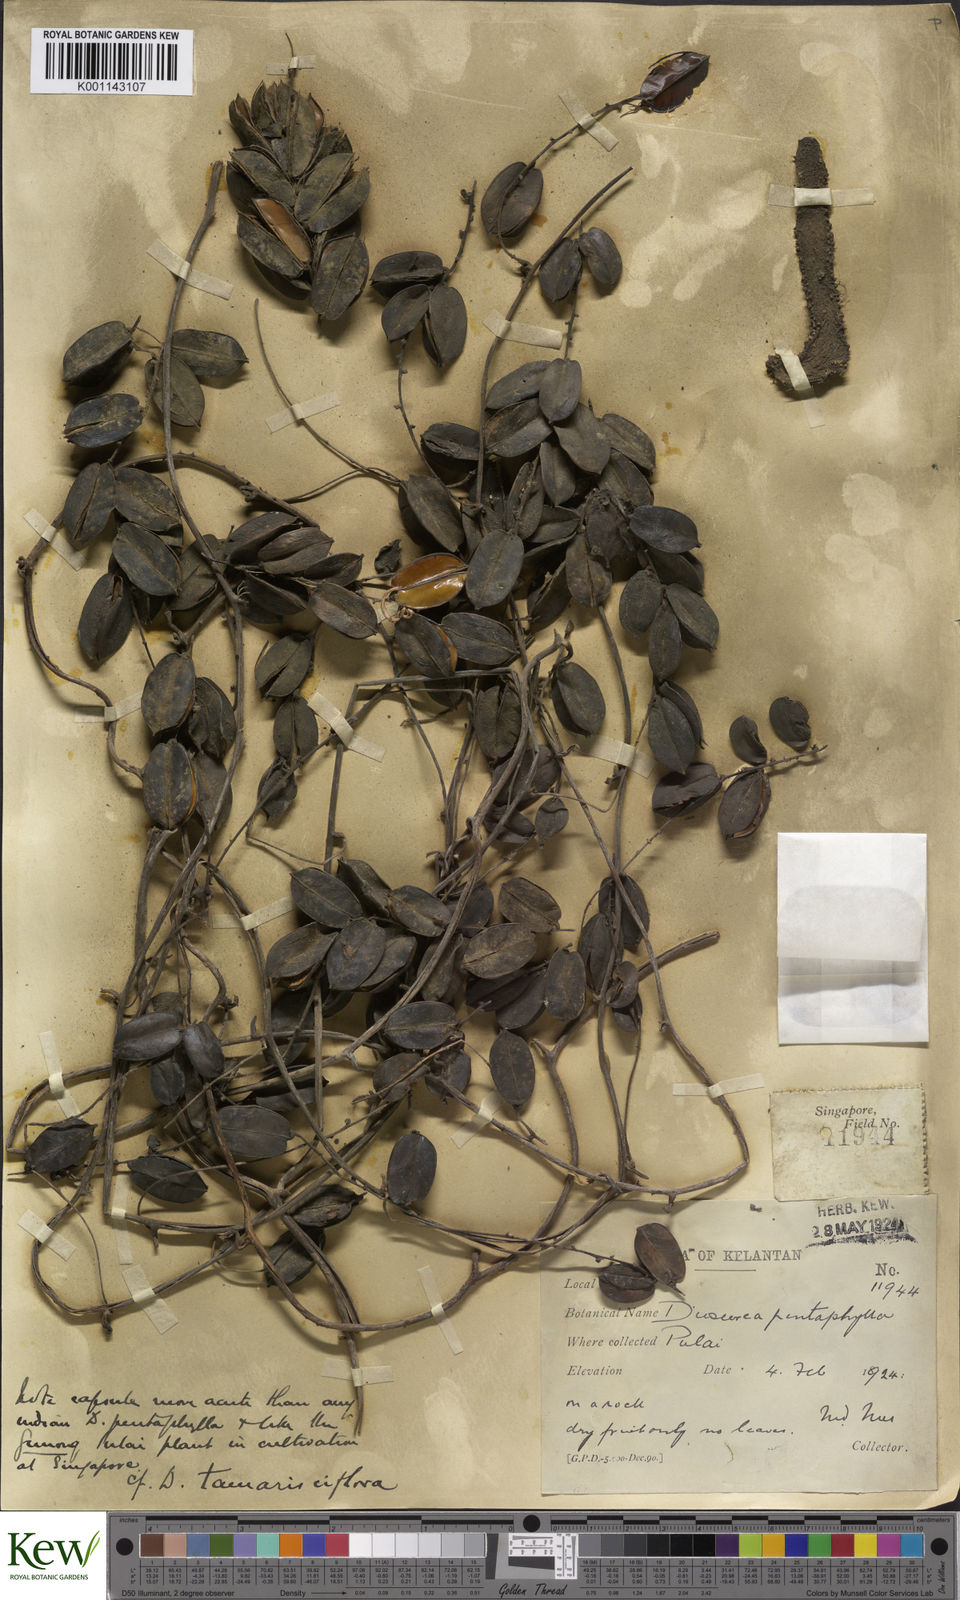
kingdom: Plantae
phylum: Tracheophyta
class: Liliopsida
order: Dioscoreales
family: Dioscoreaceae
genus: Dioscorea
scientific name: Dioscorea tamarisciflora
